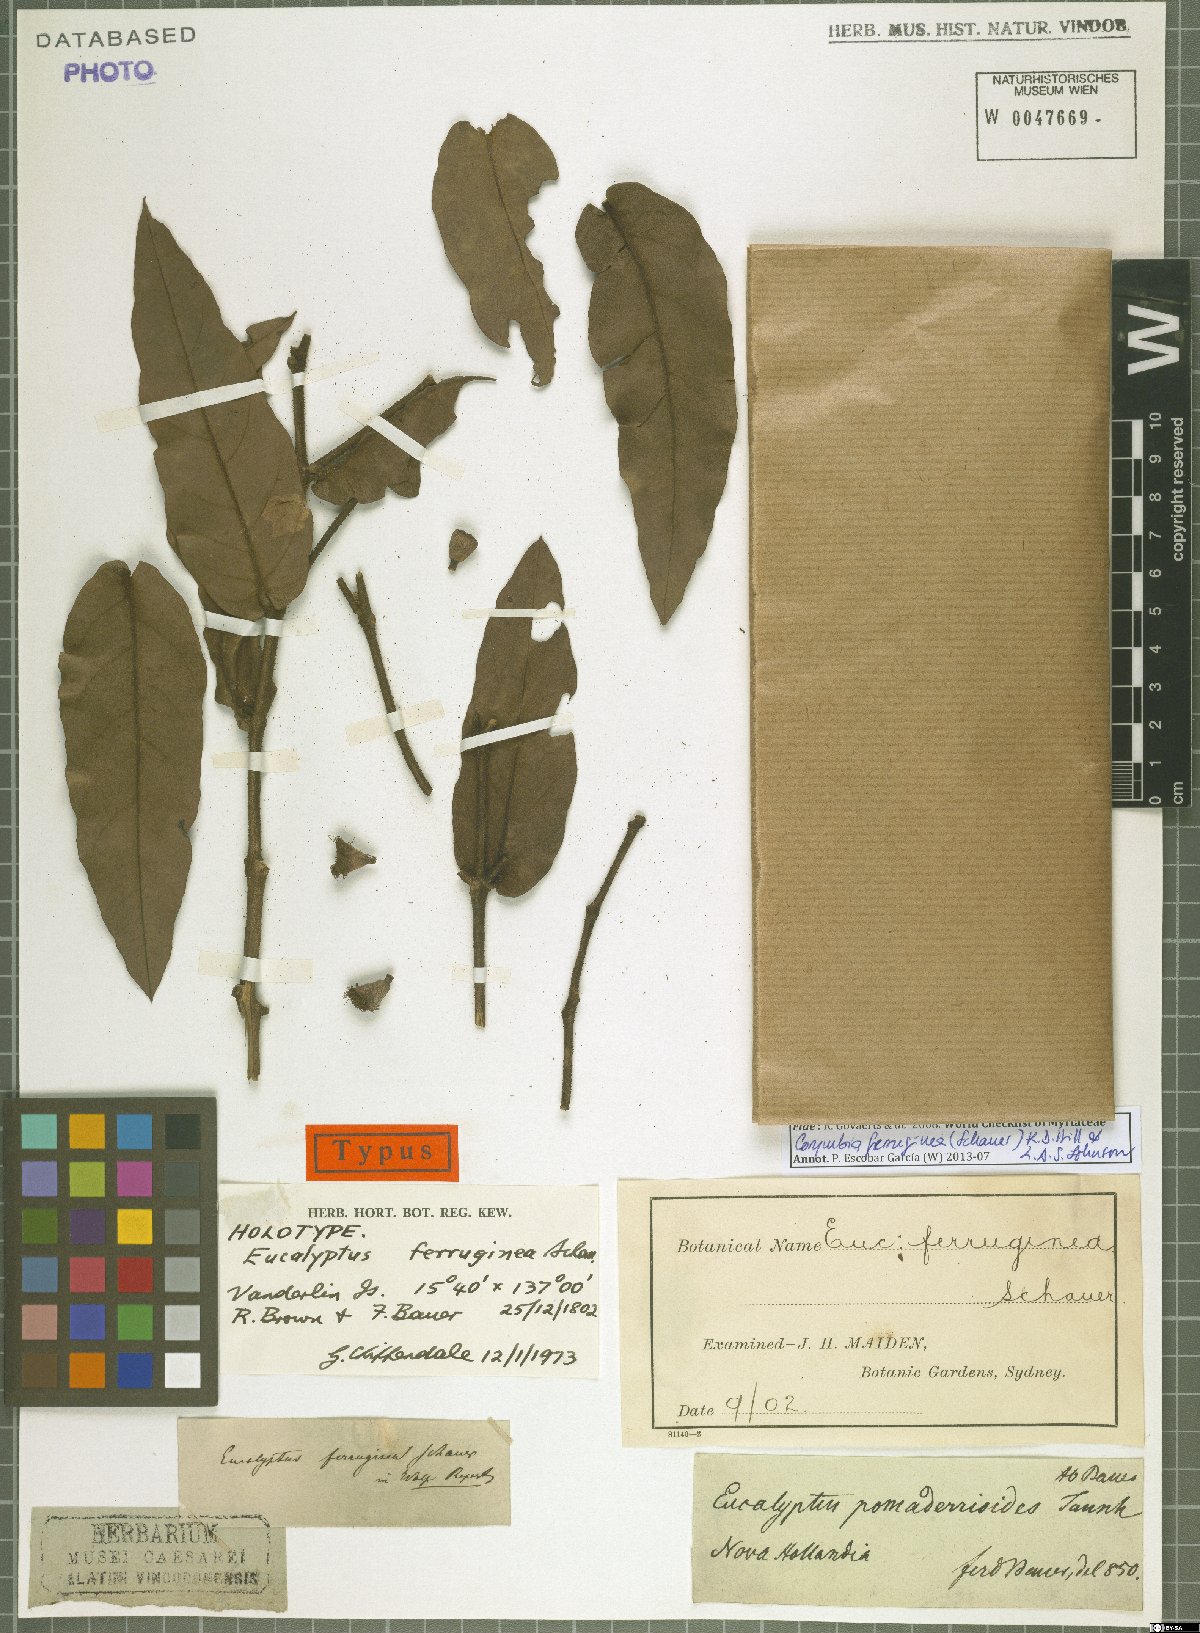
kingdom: Plantae
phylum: Tracheophyta
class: Magnoliopsida
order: Myrtales
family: Myrtaceae
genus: Corymbia
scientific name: Corymbia ferruginea
